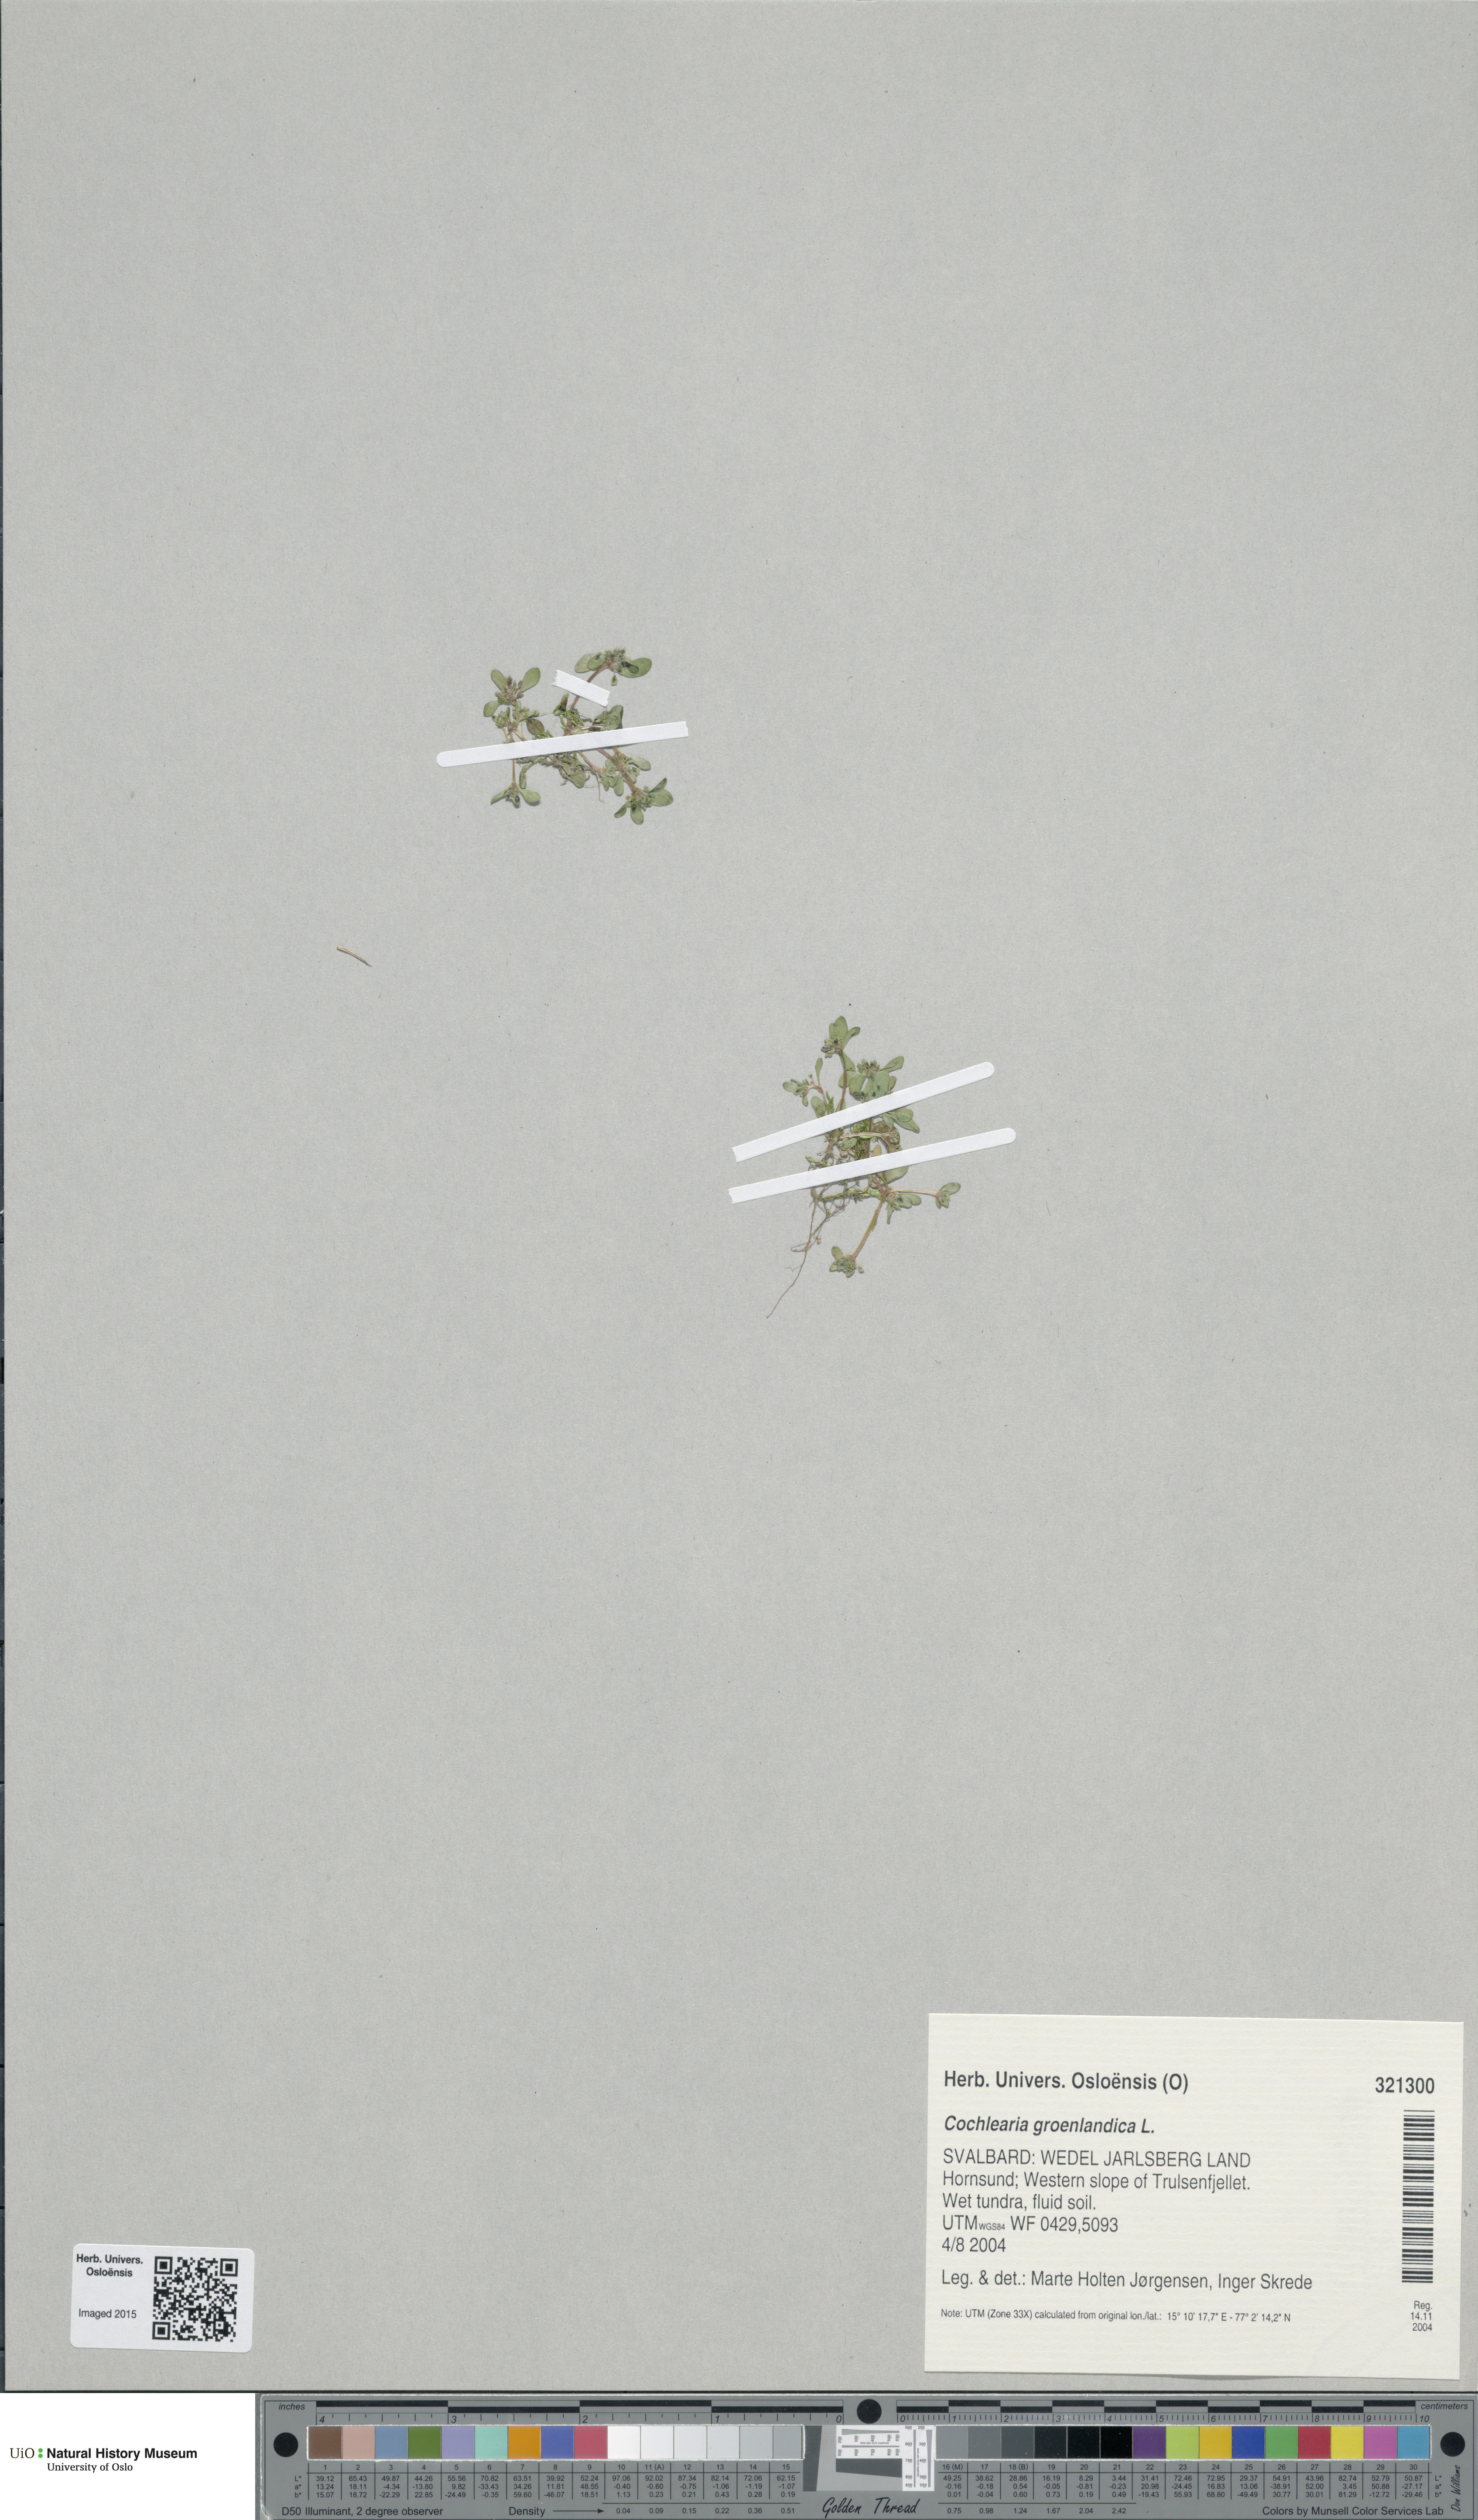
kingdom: Plantae
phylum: Tracheophyta
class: Magnoliopsida
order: Brassicales
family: Brassicaceae
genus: Cochlearia
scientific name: Cochlearia groenlandica
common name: Danish scurvygrass
